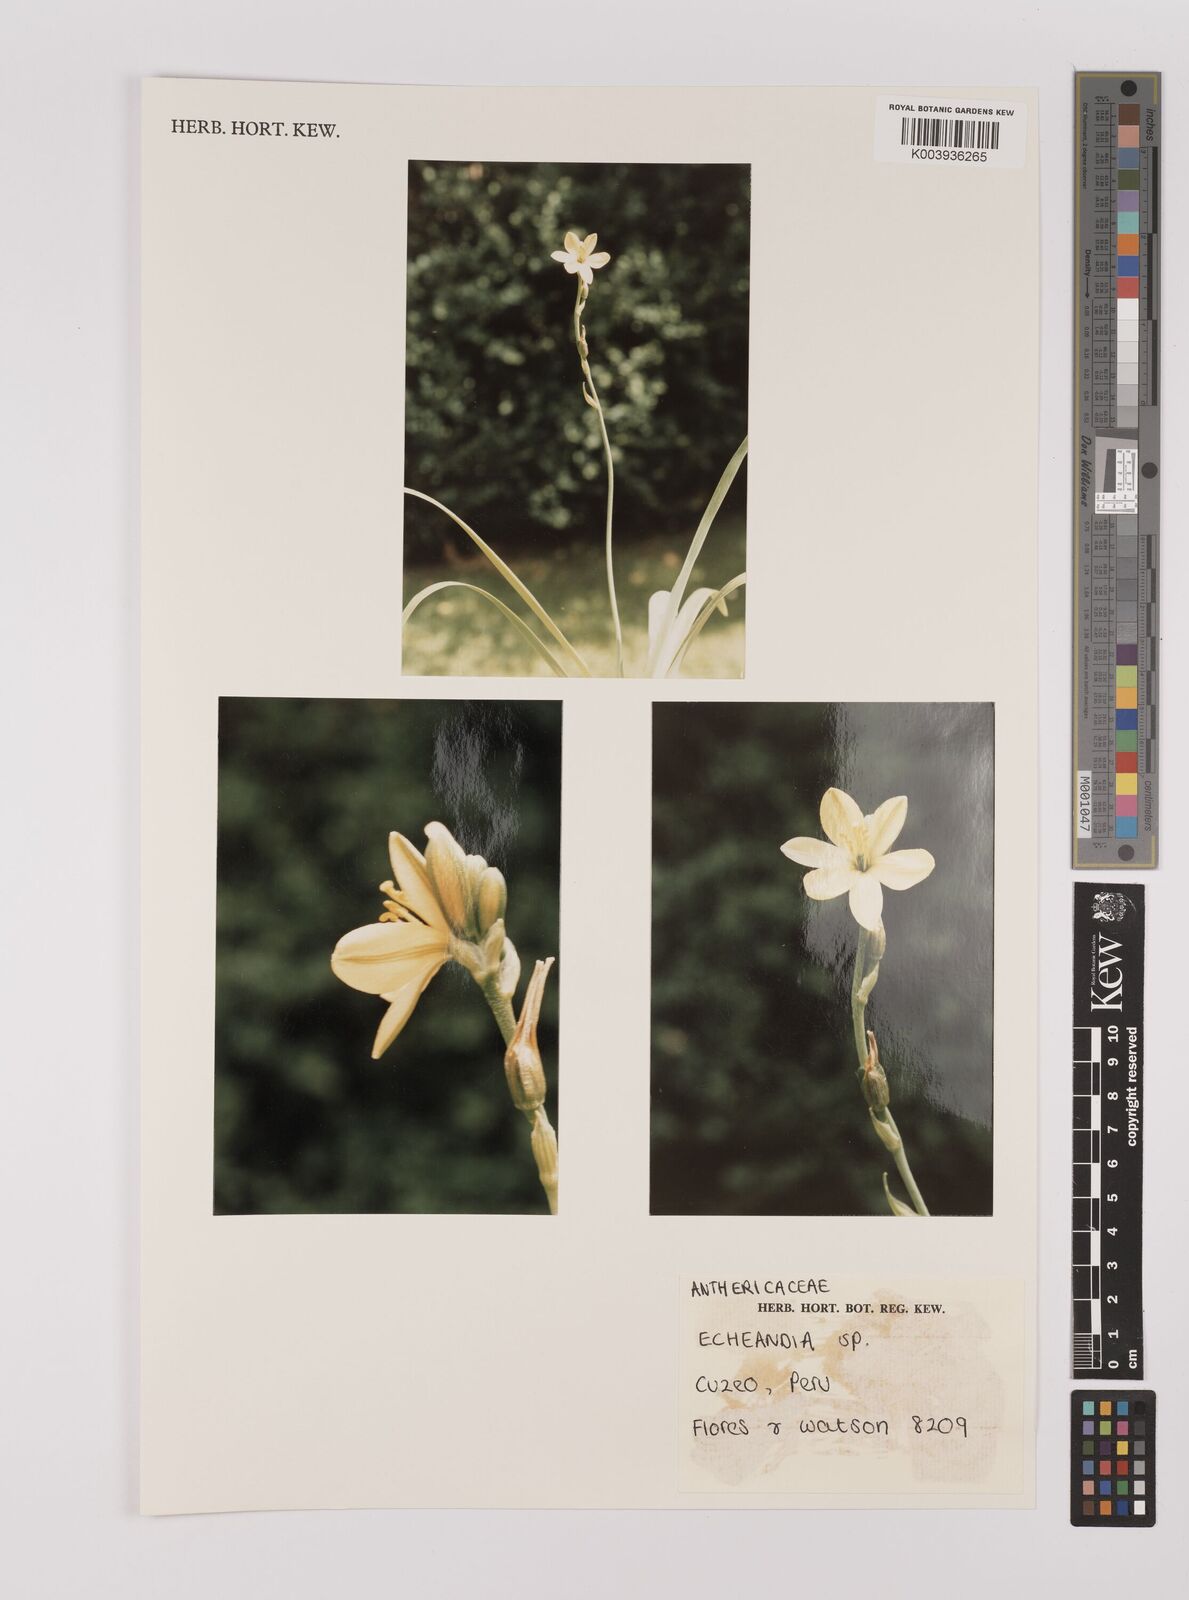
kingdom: Plantae
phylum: Tracheophyta
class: Liliopsida
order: Asparagales
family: Asparagaceae
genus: Echeandia
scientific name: Echeandia
